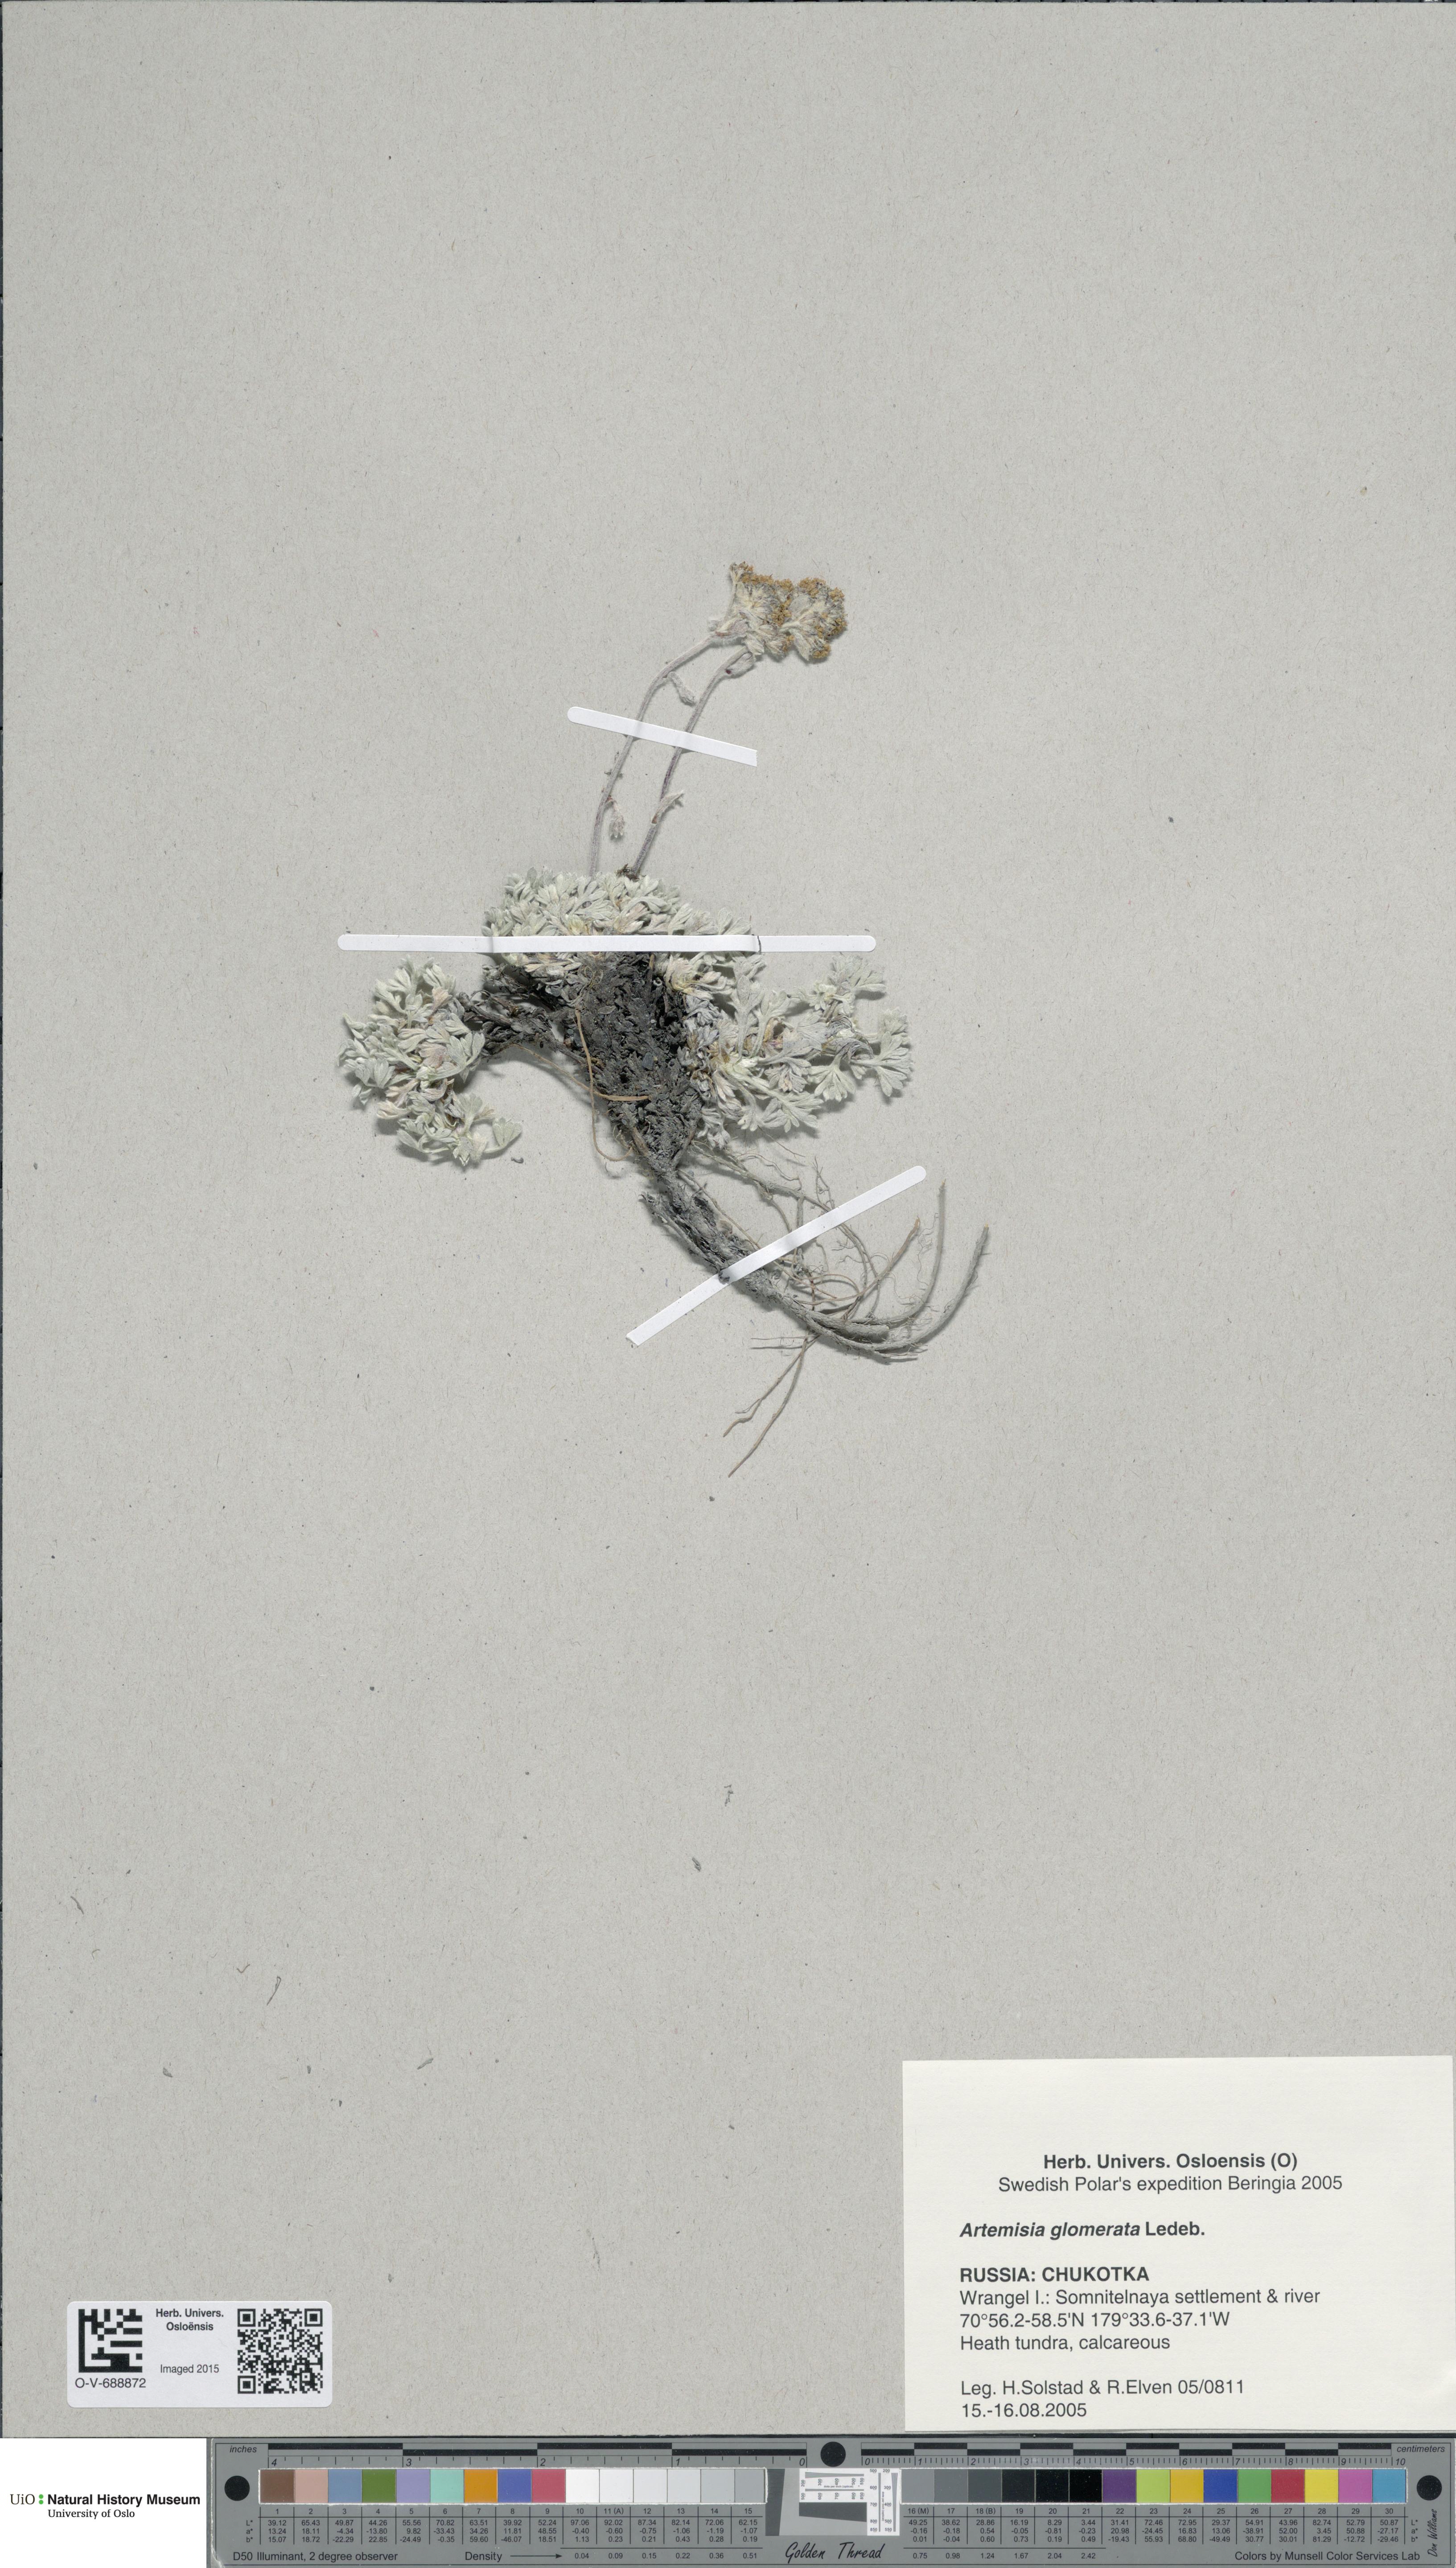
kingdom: Plantae
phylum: Tracheophyta
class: Magnoliopsida
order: Asterales
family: Asteraceae
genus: Artemisia
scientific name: Artemisia glomerata
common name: Pacific alpine wormwood
